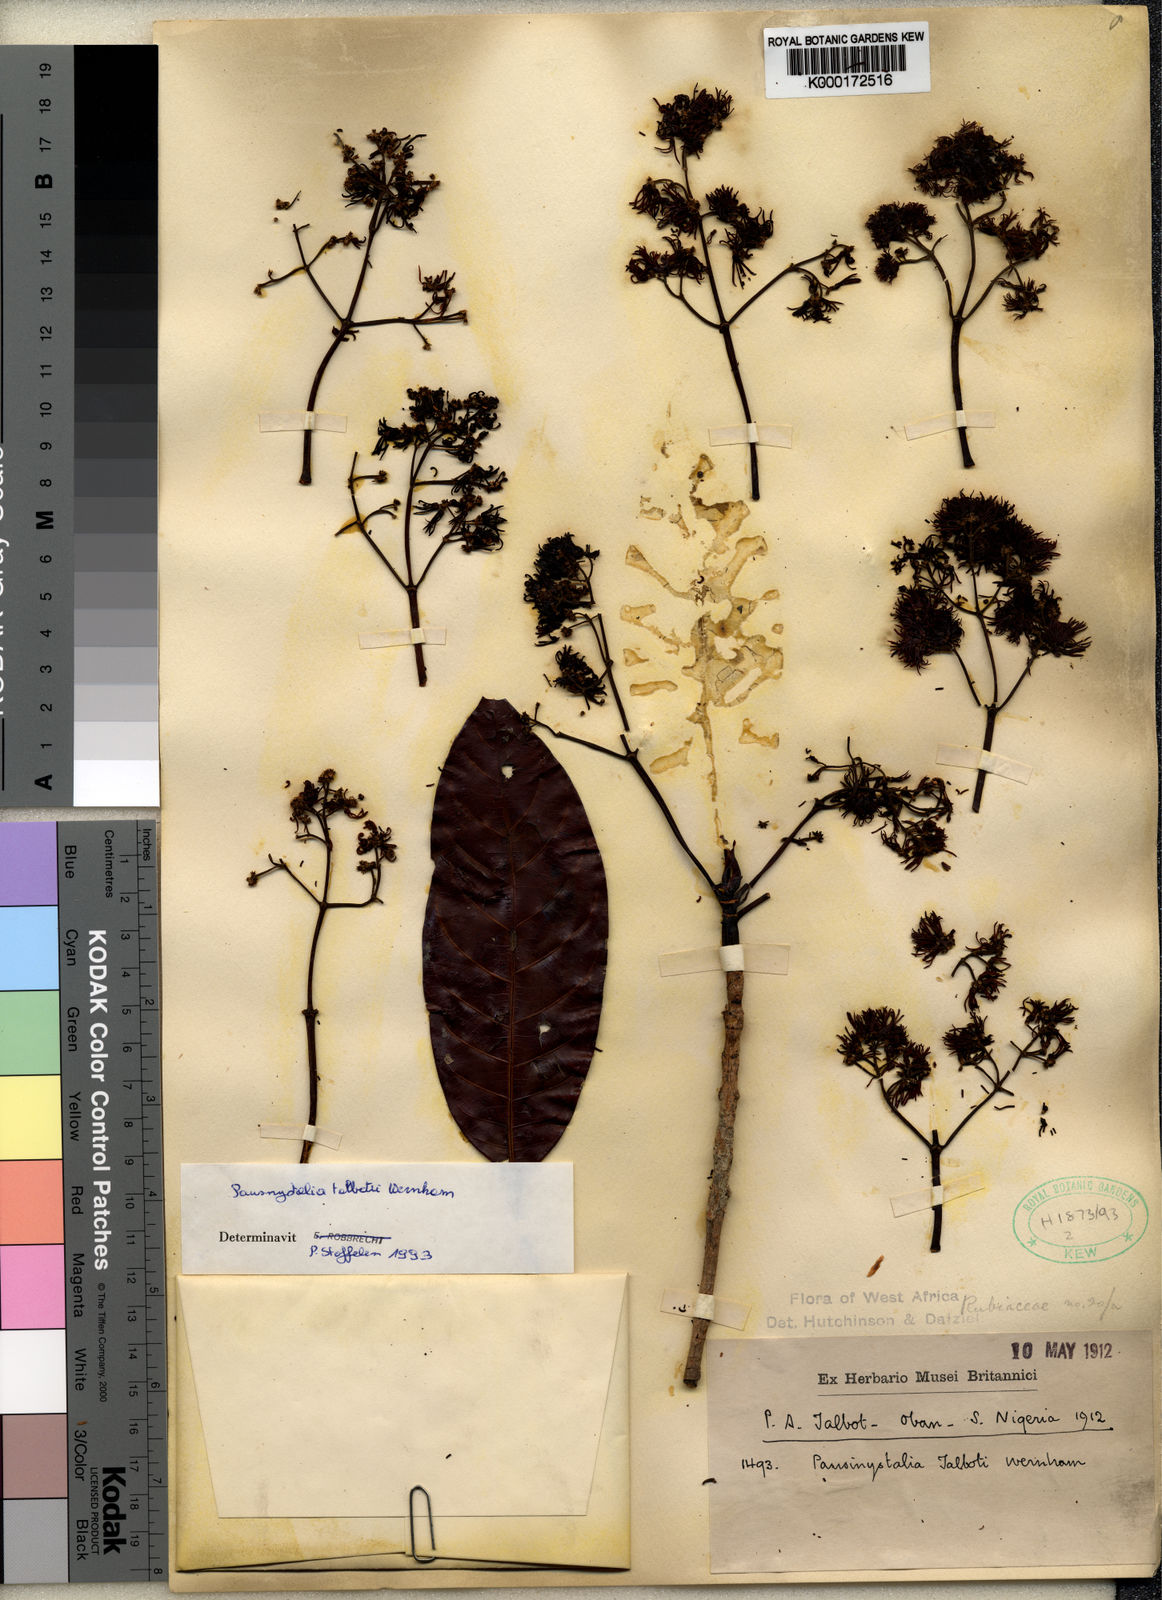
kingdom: Plantae
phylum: Tracheophyta
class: Magnoliopsida
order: Gentianales
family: Rubiaceae
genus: Corynanthe
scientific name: Corynanthe talbotii
